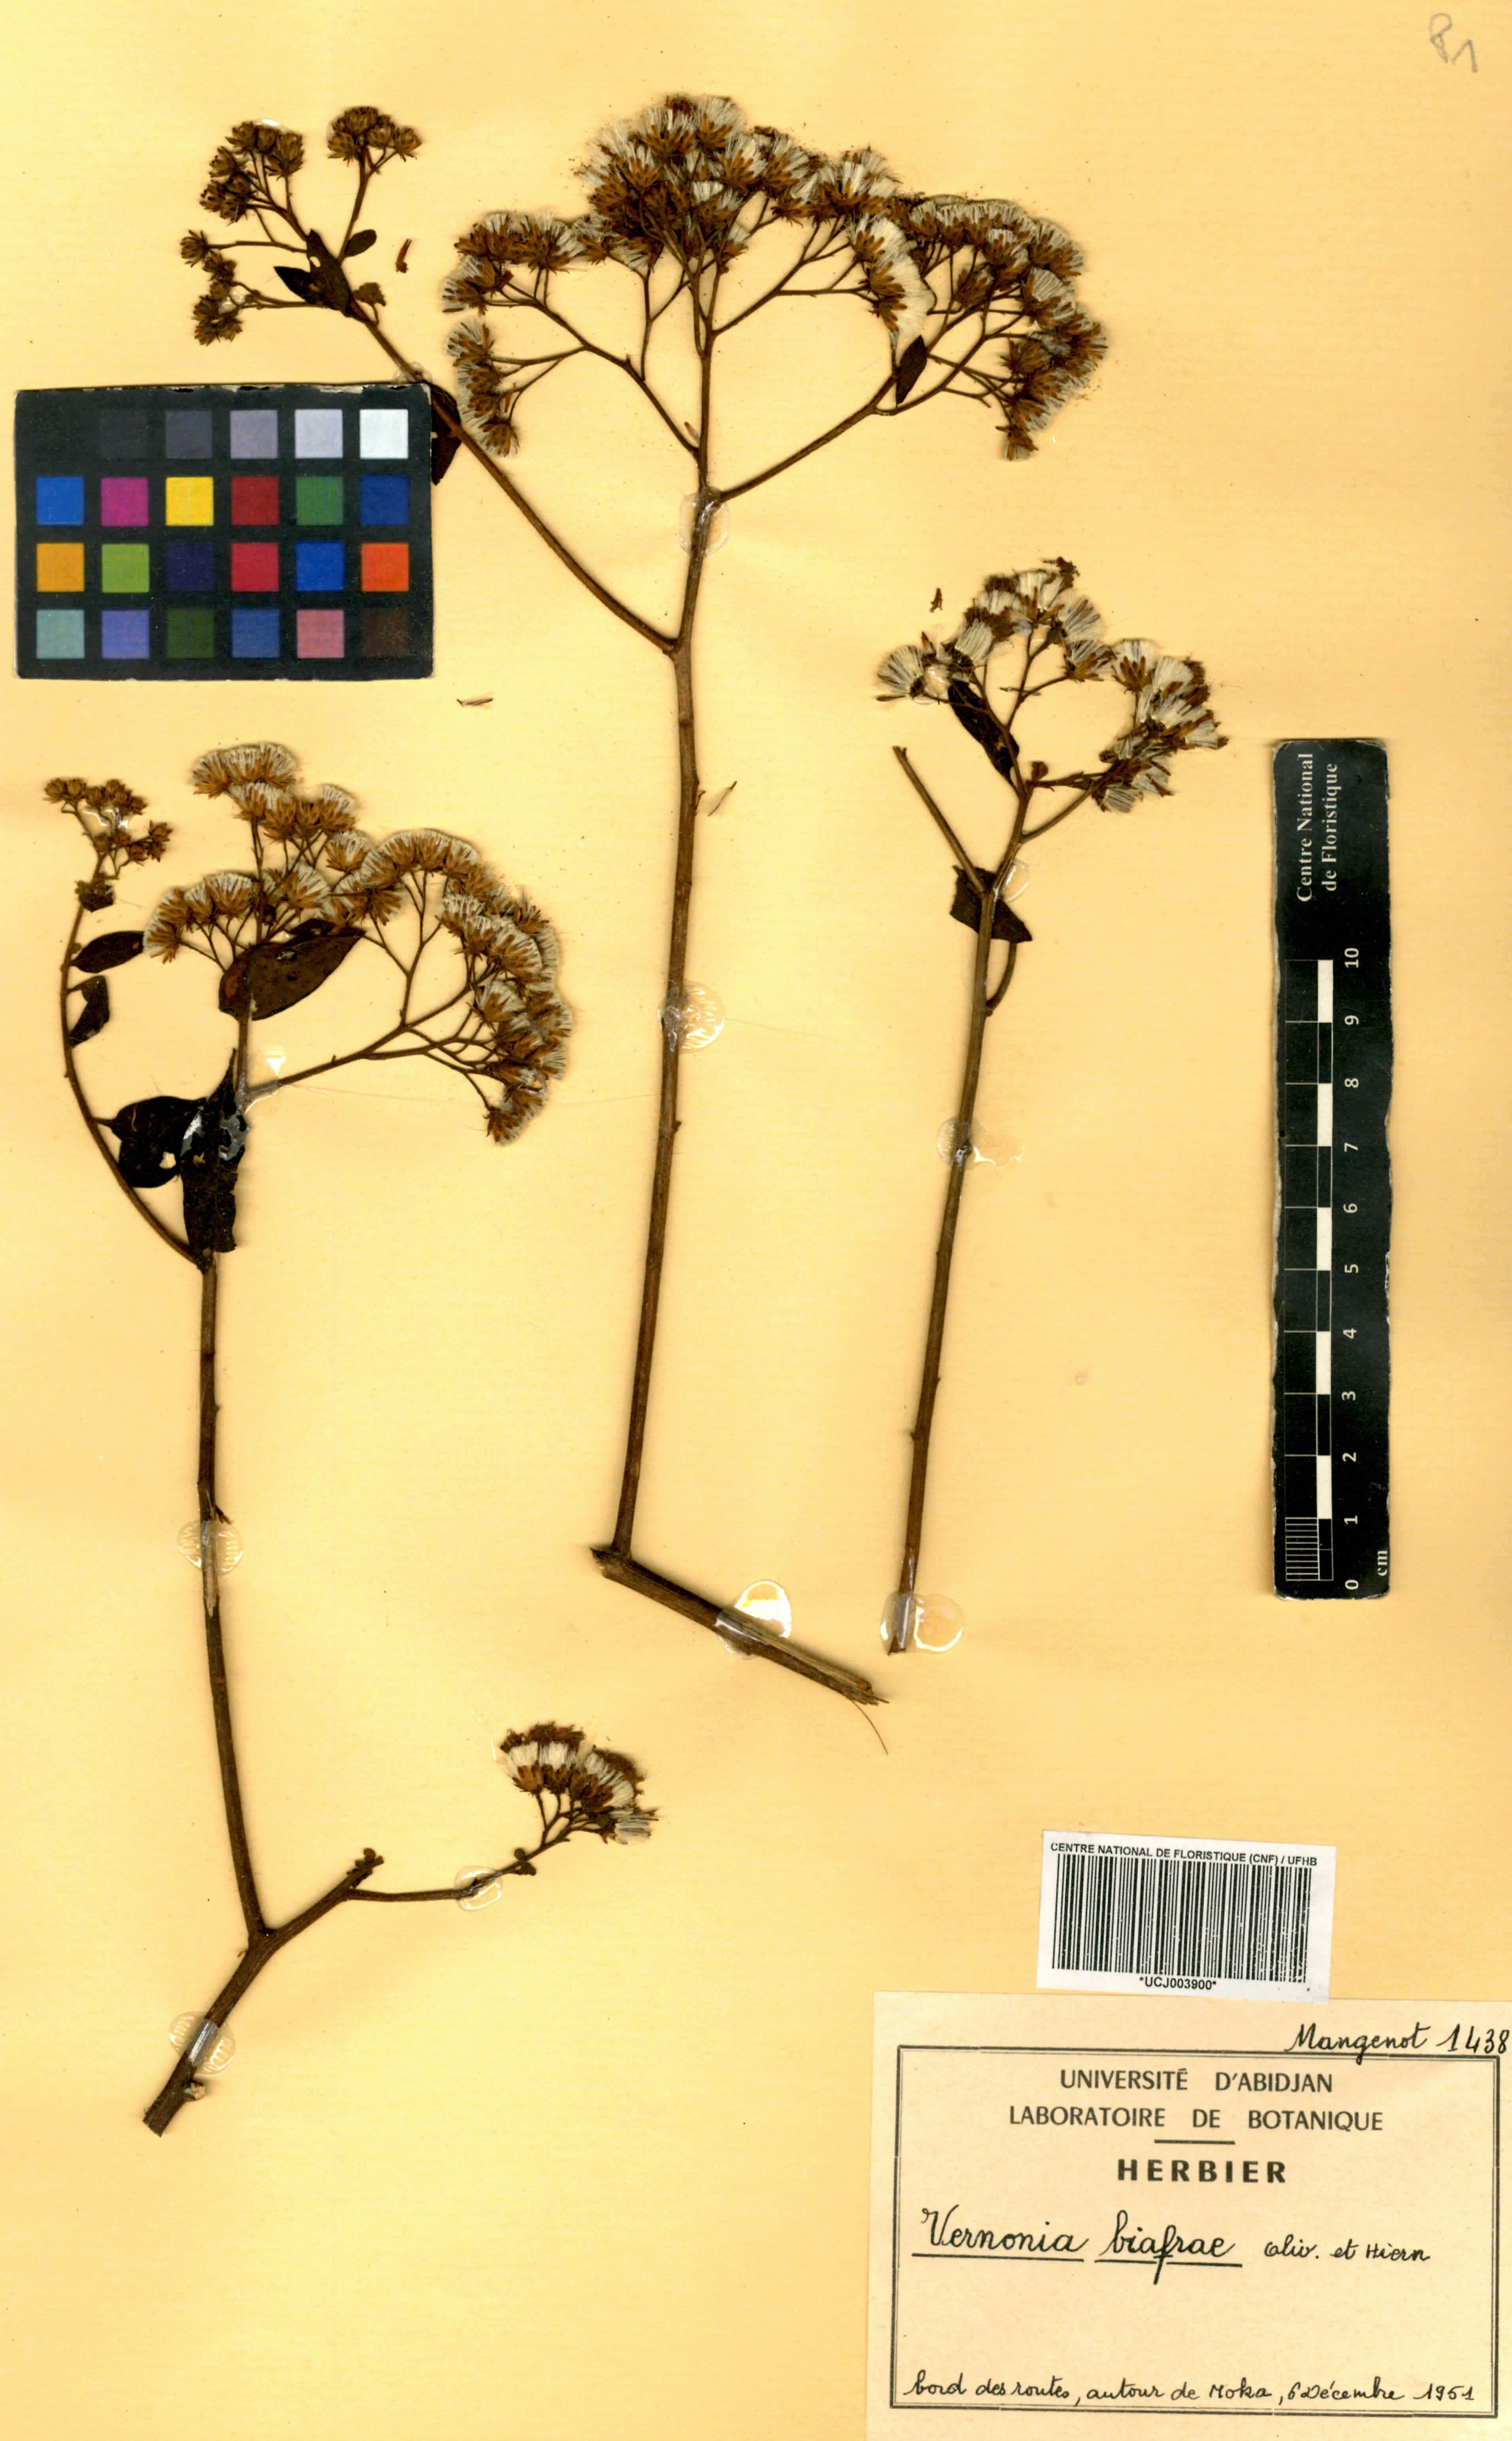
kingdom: Plantae
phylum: Tracheophyta
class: Magnoliopsida
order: Asterales
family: Asteraceae
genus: Distephanus
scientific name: Distephanus biafrae
